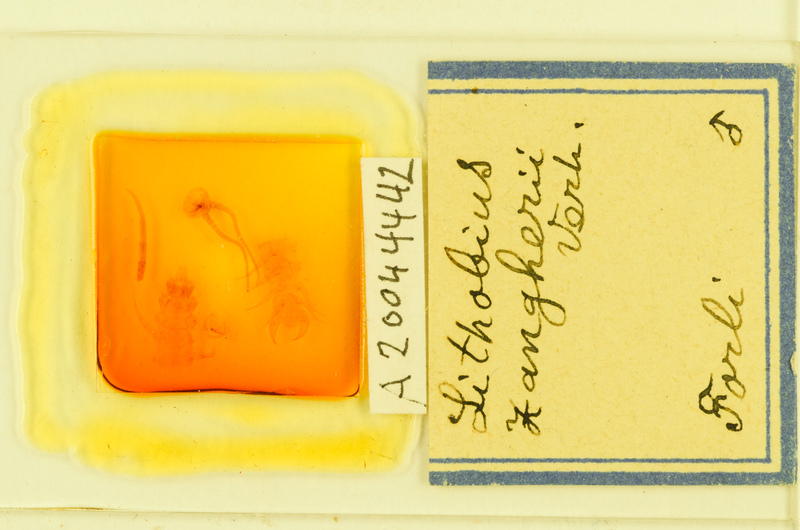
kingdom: Animalia
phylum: Arthropoda
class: Chilopoda
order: Lithobiomorpha
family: Lithobiidae
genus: Lithobius
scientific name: Lithobius
